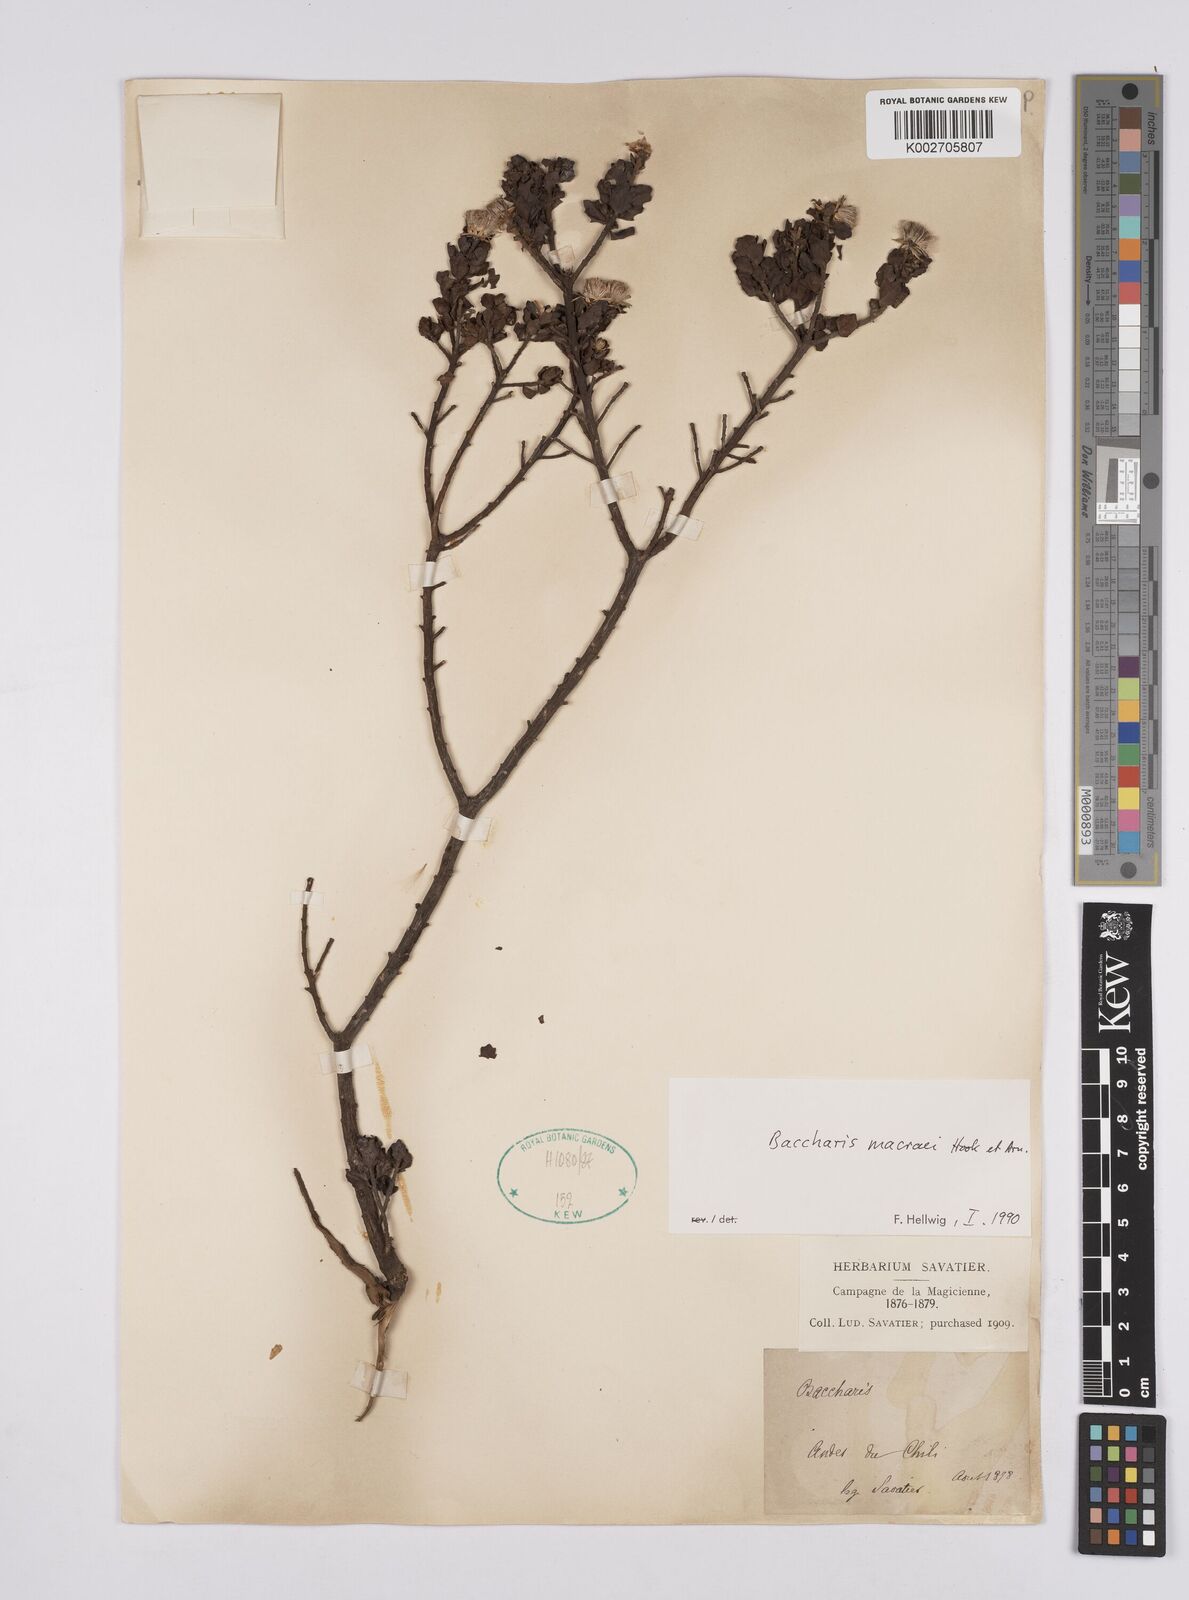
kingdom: Plantae
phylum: Tracheophyta
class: Magnoliopsida
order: Asterales
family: Asteraceae
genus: Baccharis
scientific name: Baccharis macraei
